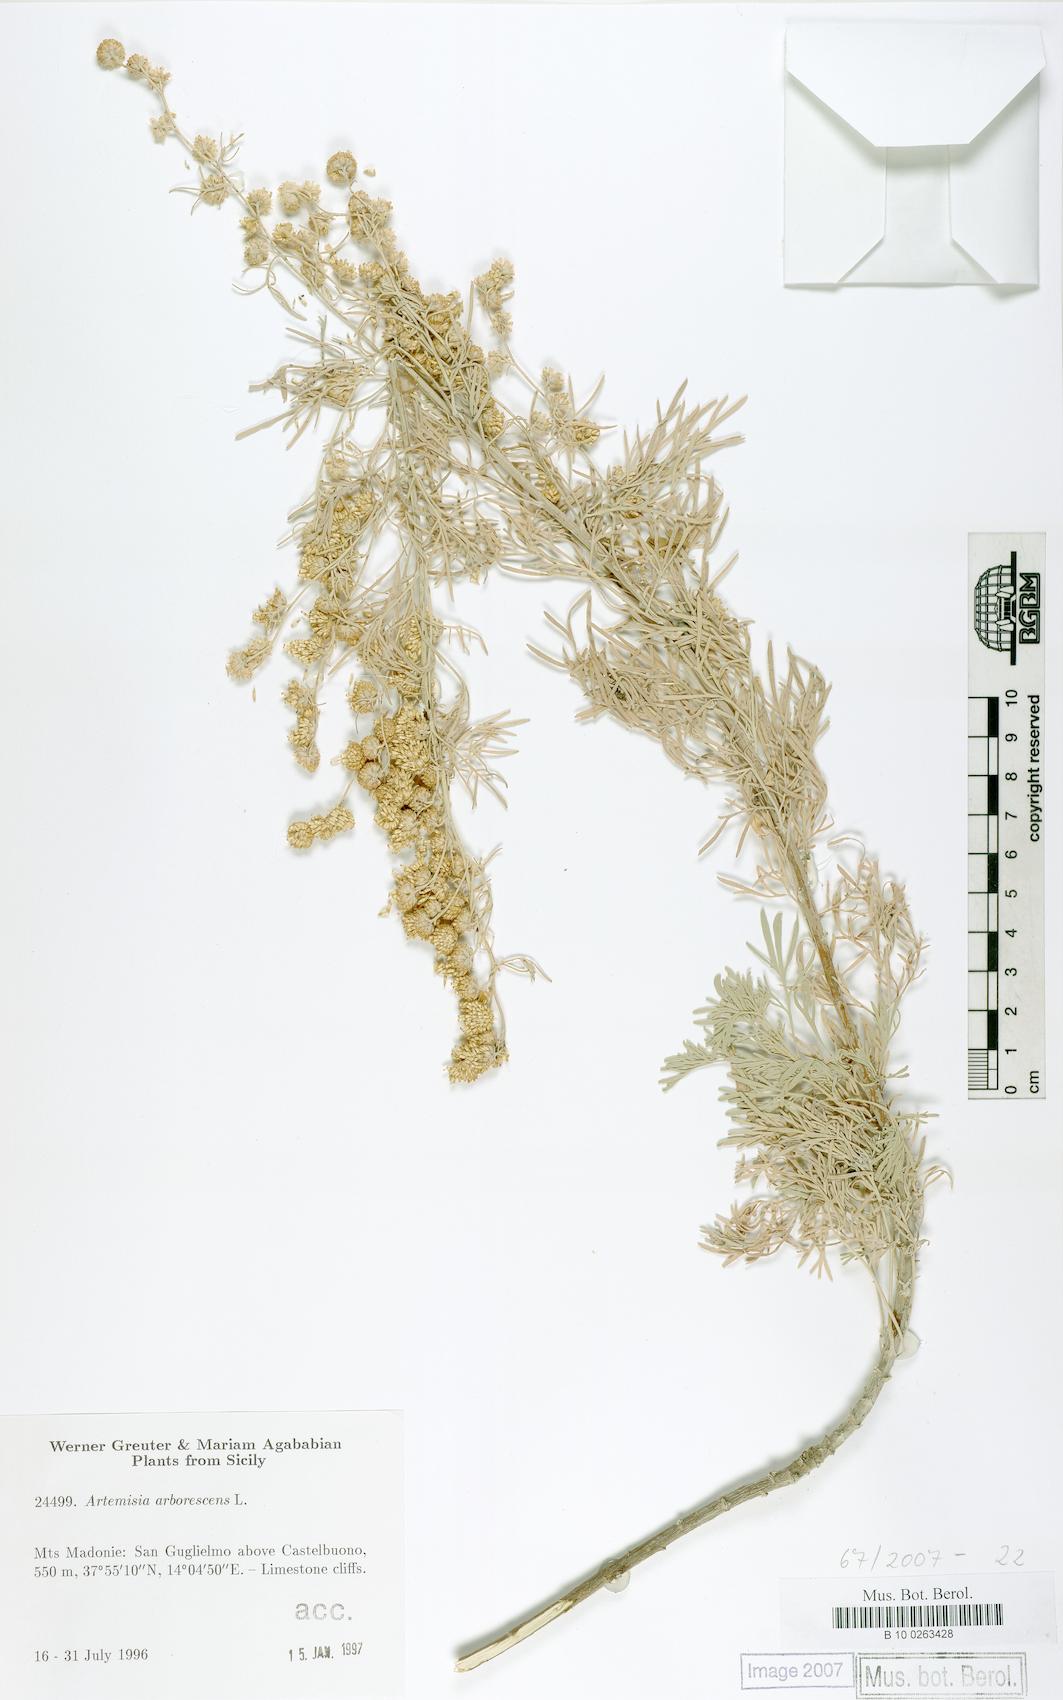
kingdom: Plantae
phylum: Tracheophyta
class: Magnoliopsida
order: Asterales
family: Asteraceae
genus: Artemisia
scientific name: Artemisia arborescens
